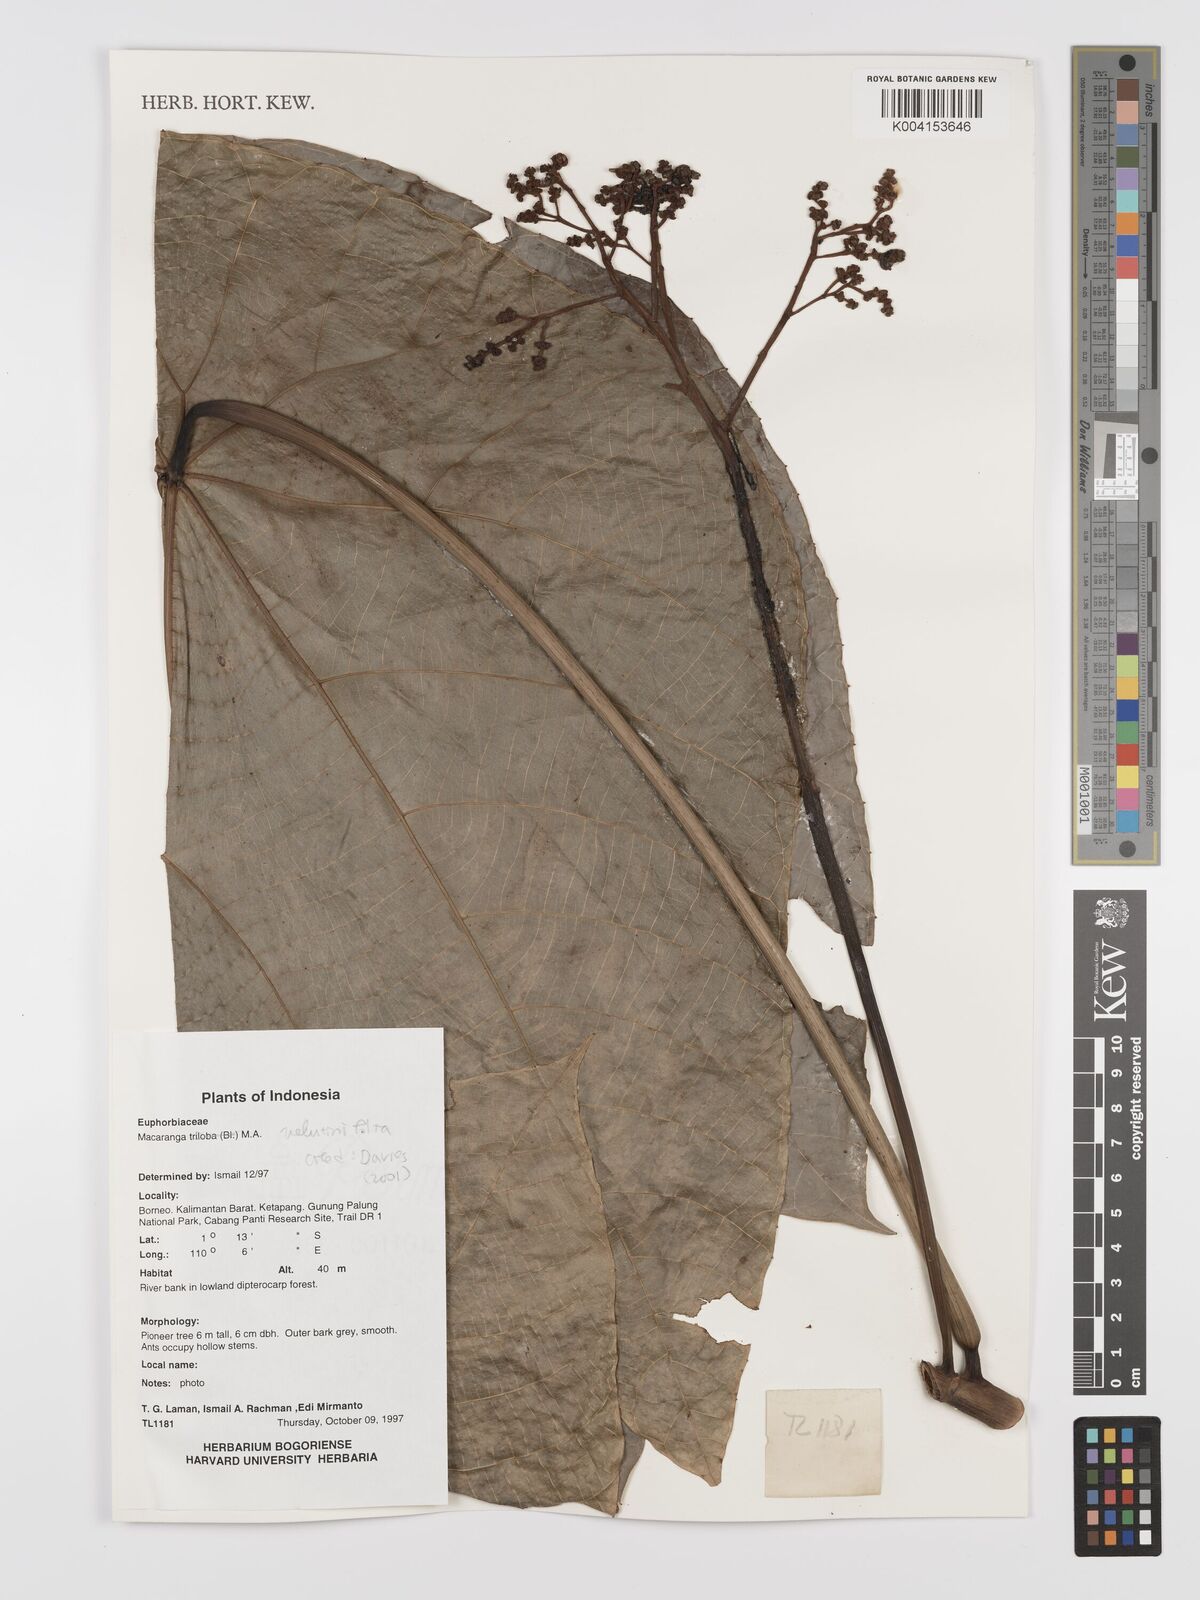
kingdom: Plantae
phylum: Tracheophyta
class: Magnoliopsida
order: Malpighiales
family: Euphorbiaceae
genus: Macaranga
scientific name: Macaranga triloba
